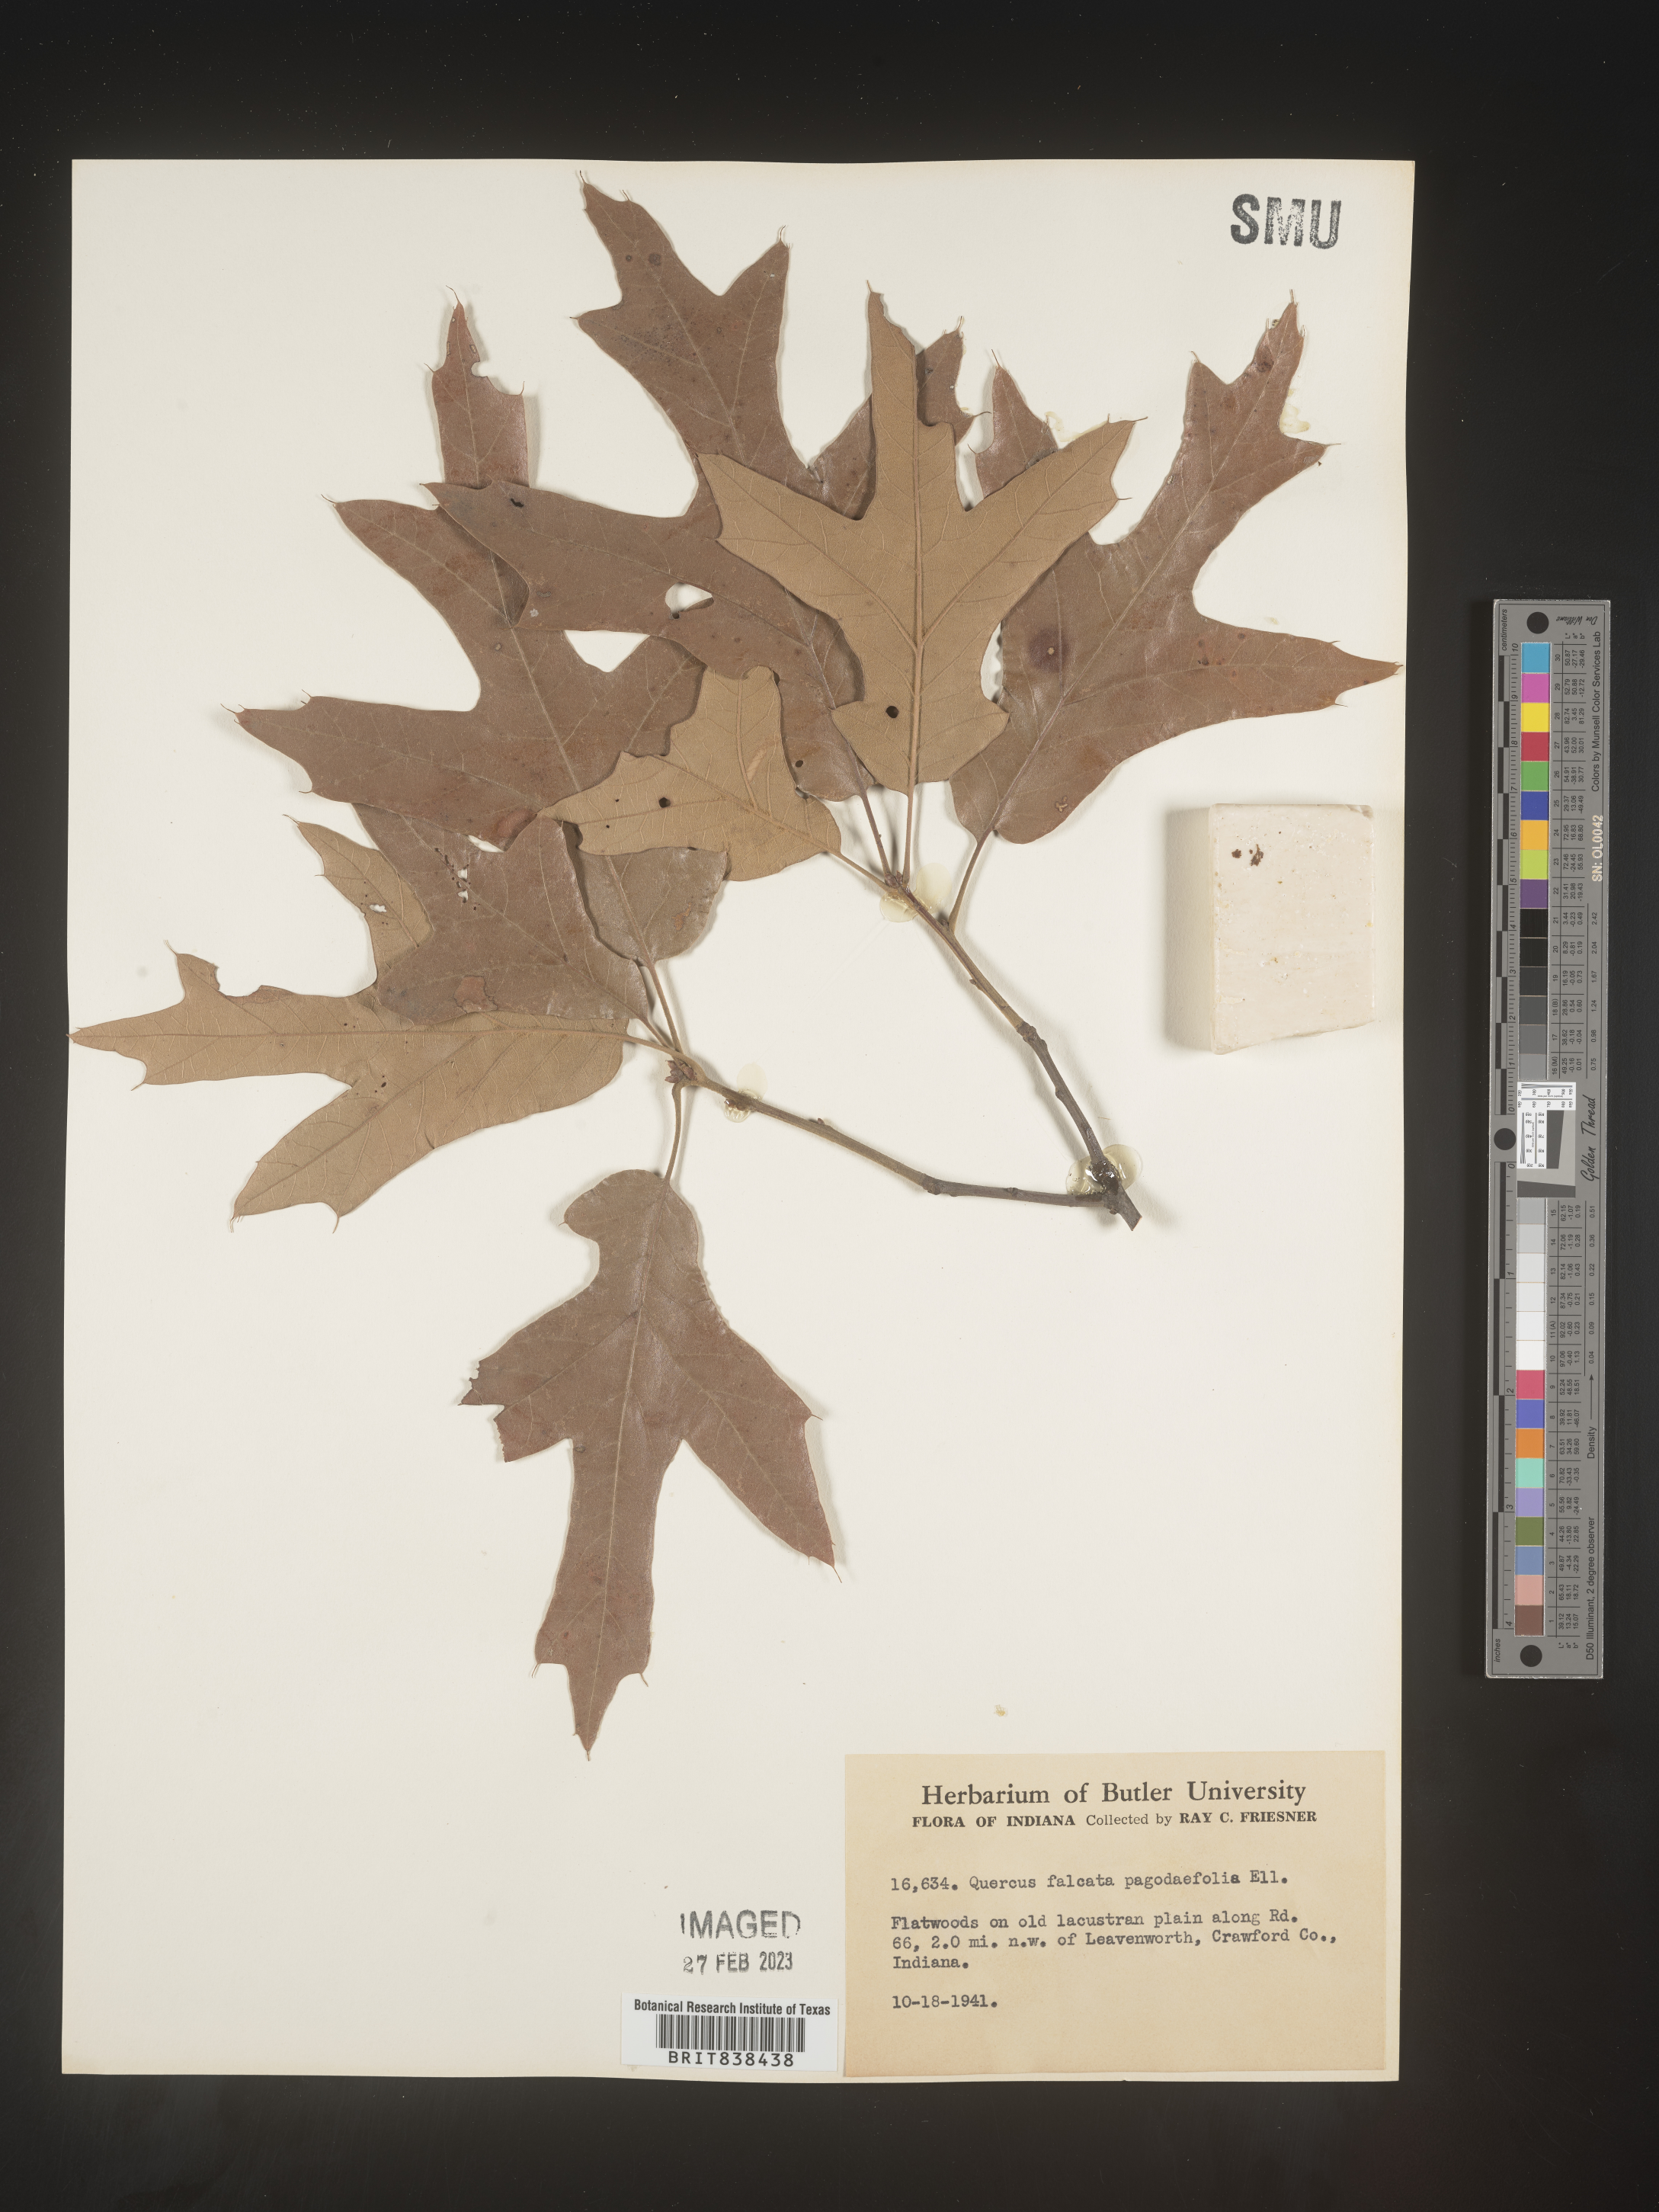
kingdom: Plantae
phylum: Tracheophyta
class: Magnoliopsida
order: Fagales
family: Fagaceae
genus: Quercus
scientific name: Quercus falcata
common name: Southern red oak
